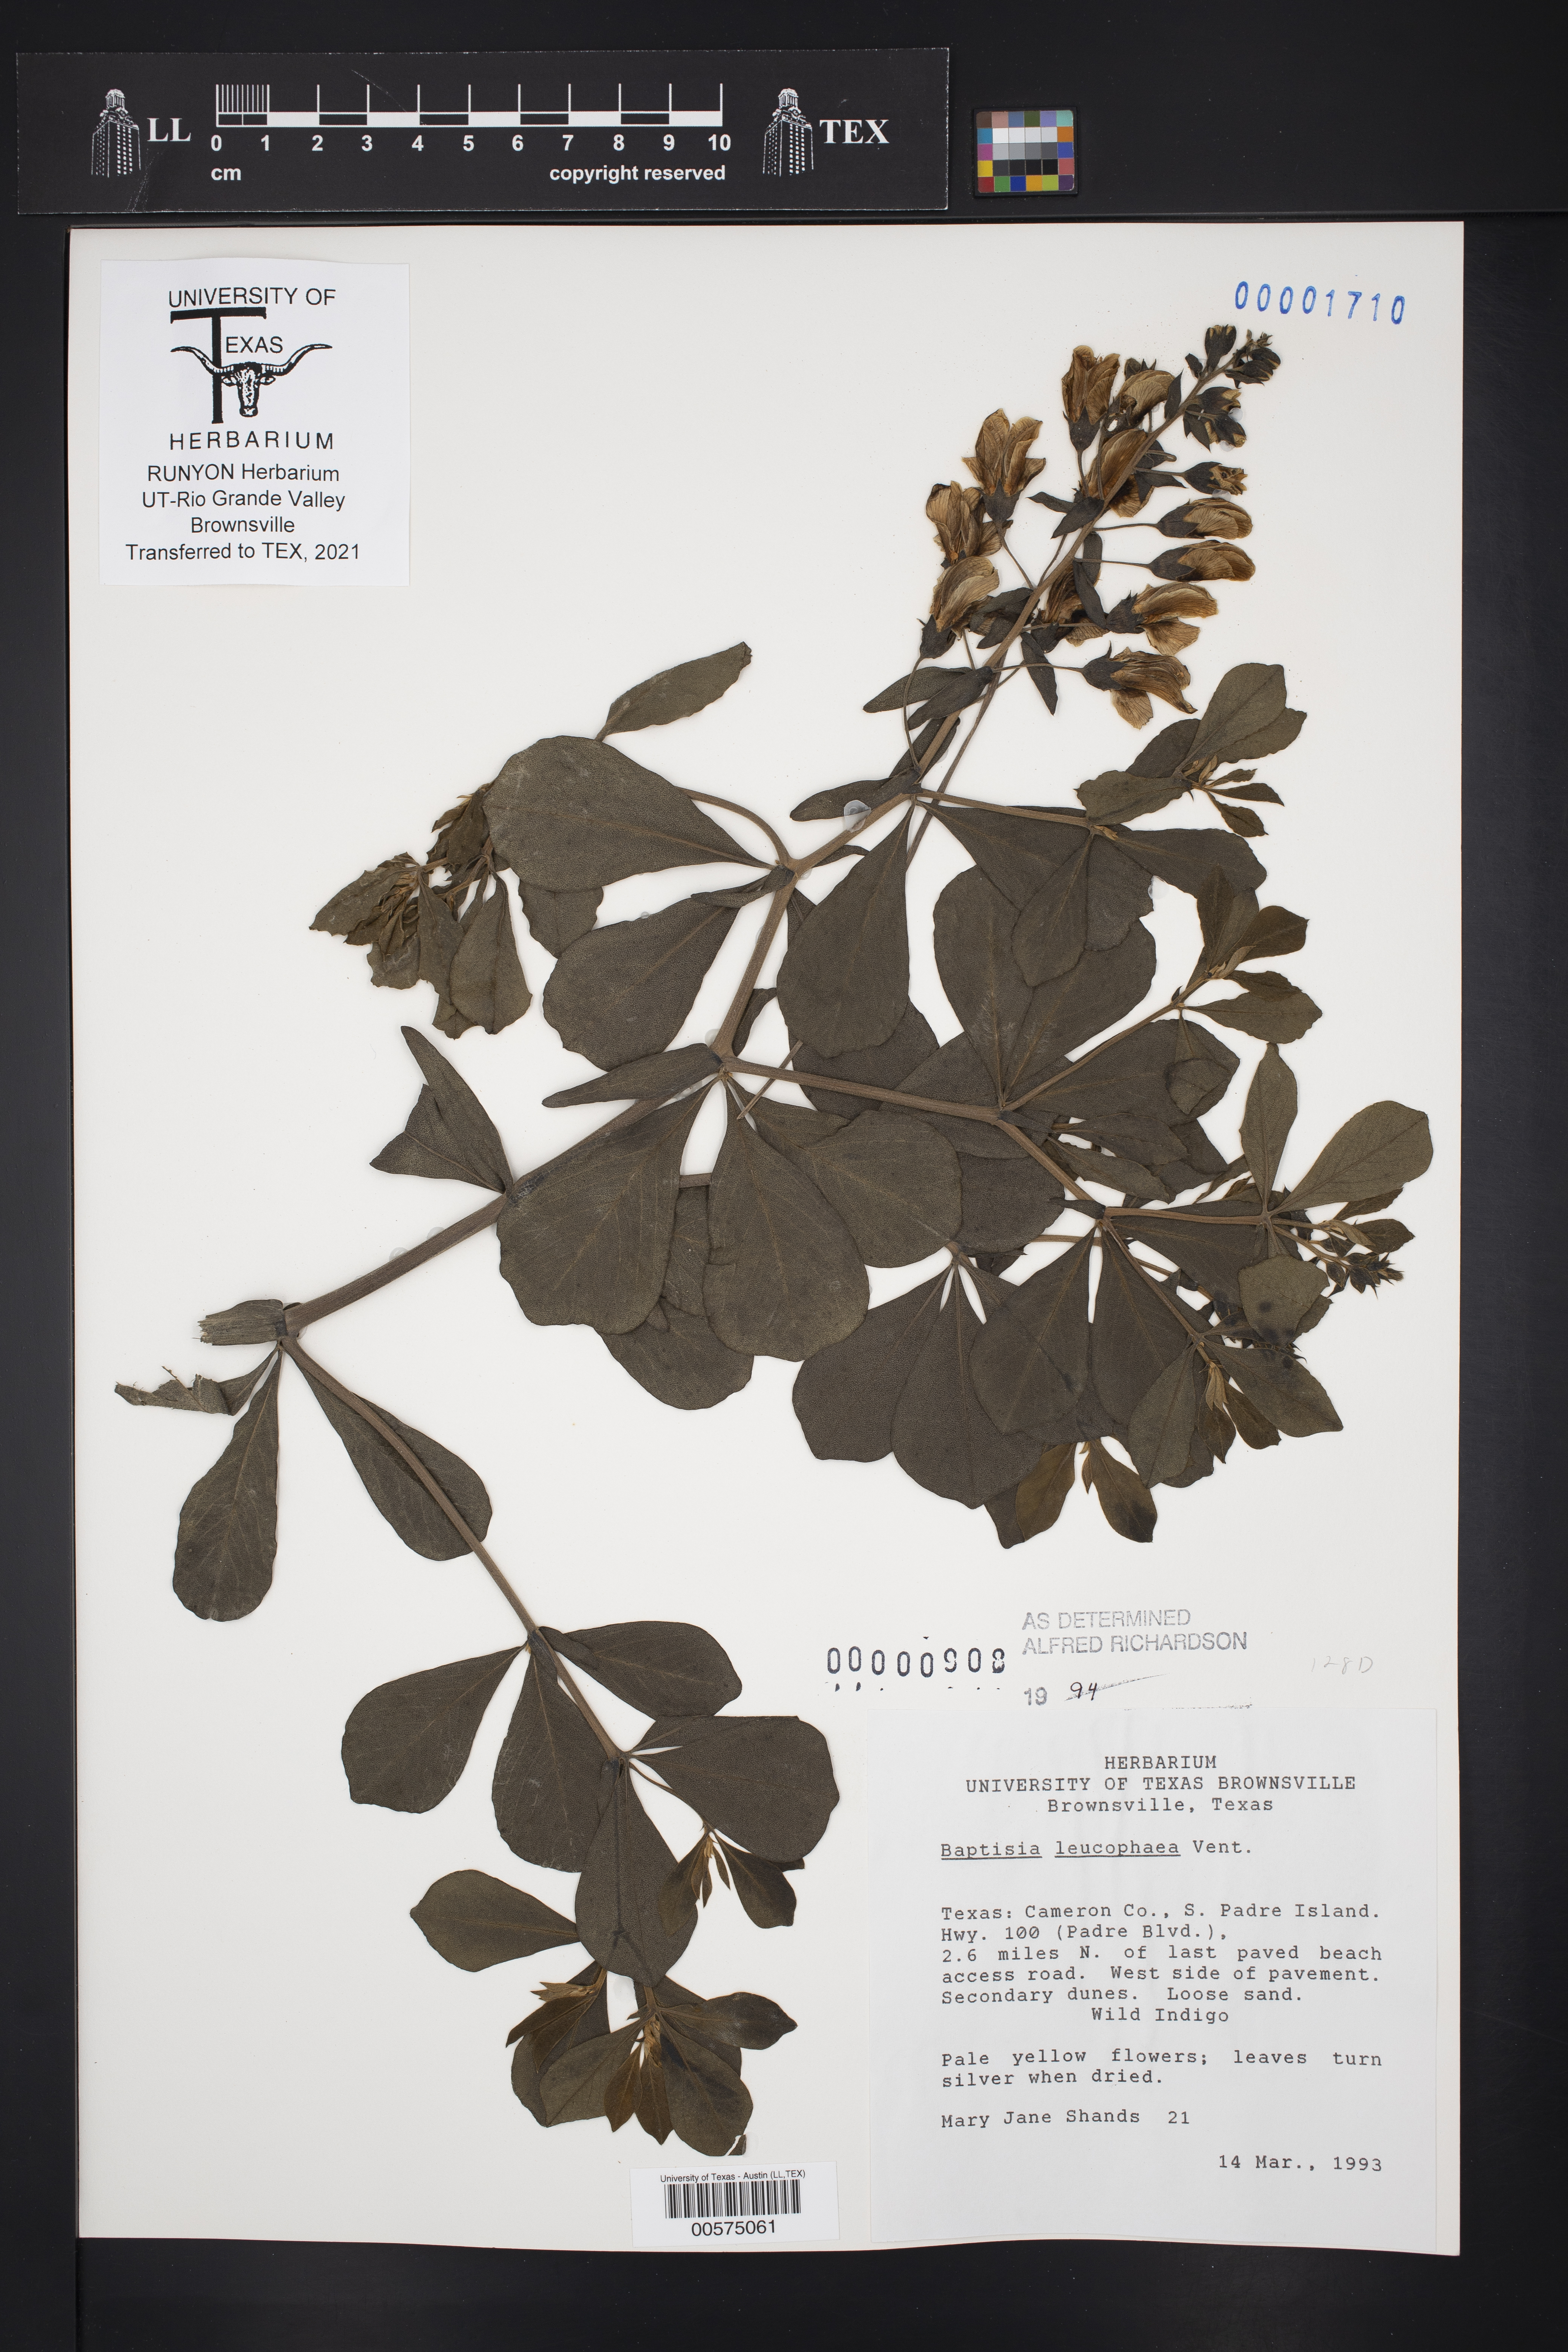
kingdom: Plantae
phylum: Tracheophyta
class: Magnoliopsida
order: Fabales
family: Fabaceae
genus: Baptisia
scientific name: Baptisia bracteata
